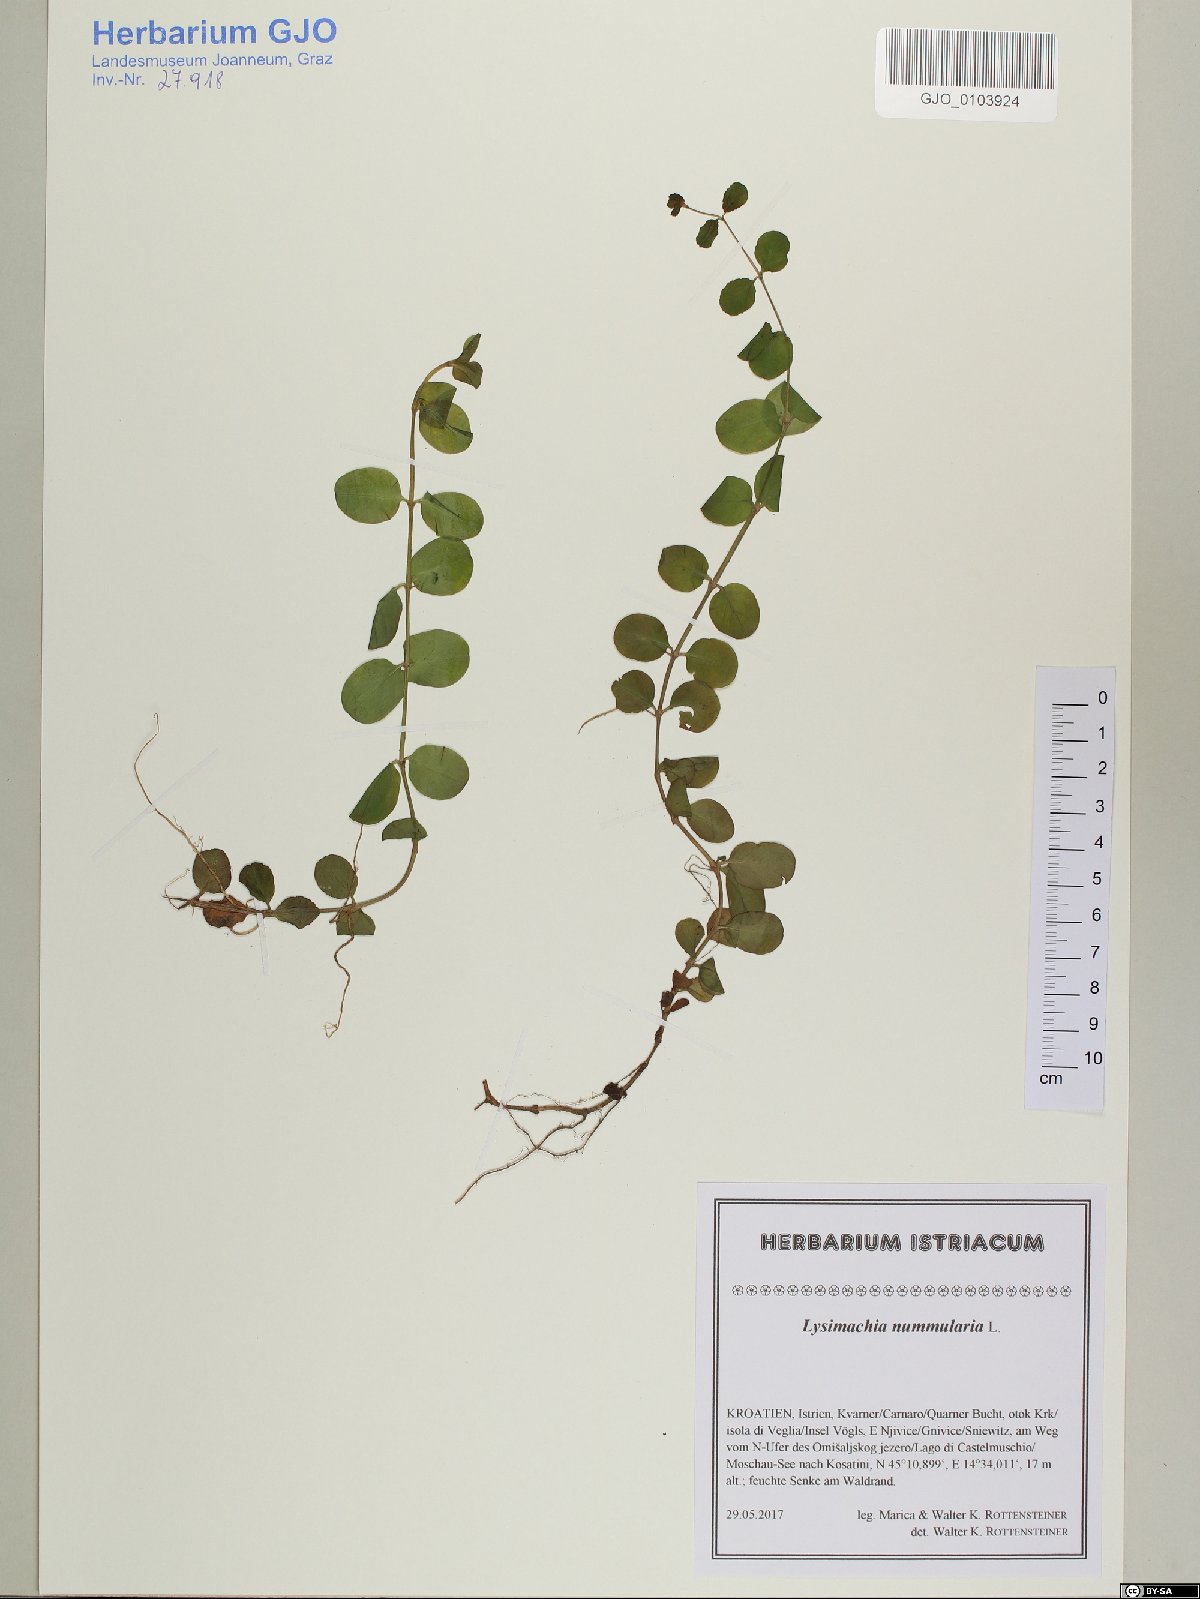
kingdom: Plantae
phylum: Tracheophyta
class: Magnoliopsida
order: Ericales
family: Primulaceae
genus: Lysimachia
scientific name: Lysimachia nummularia
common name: Moneywort
